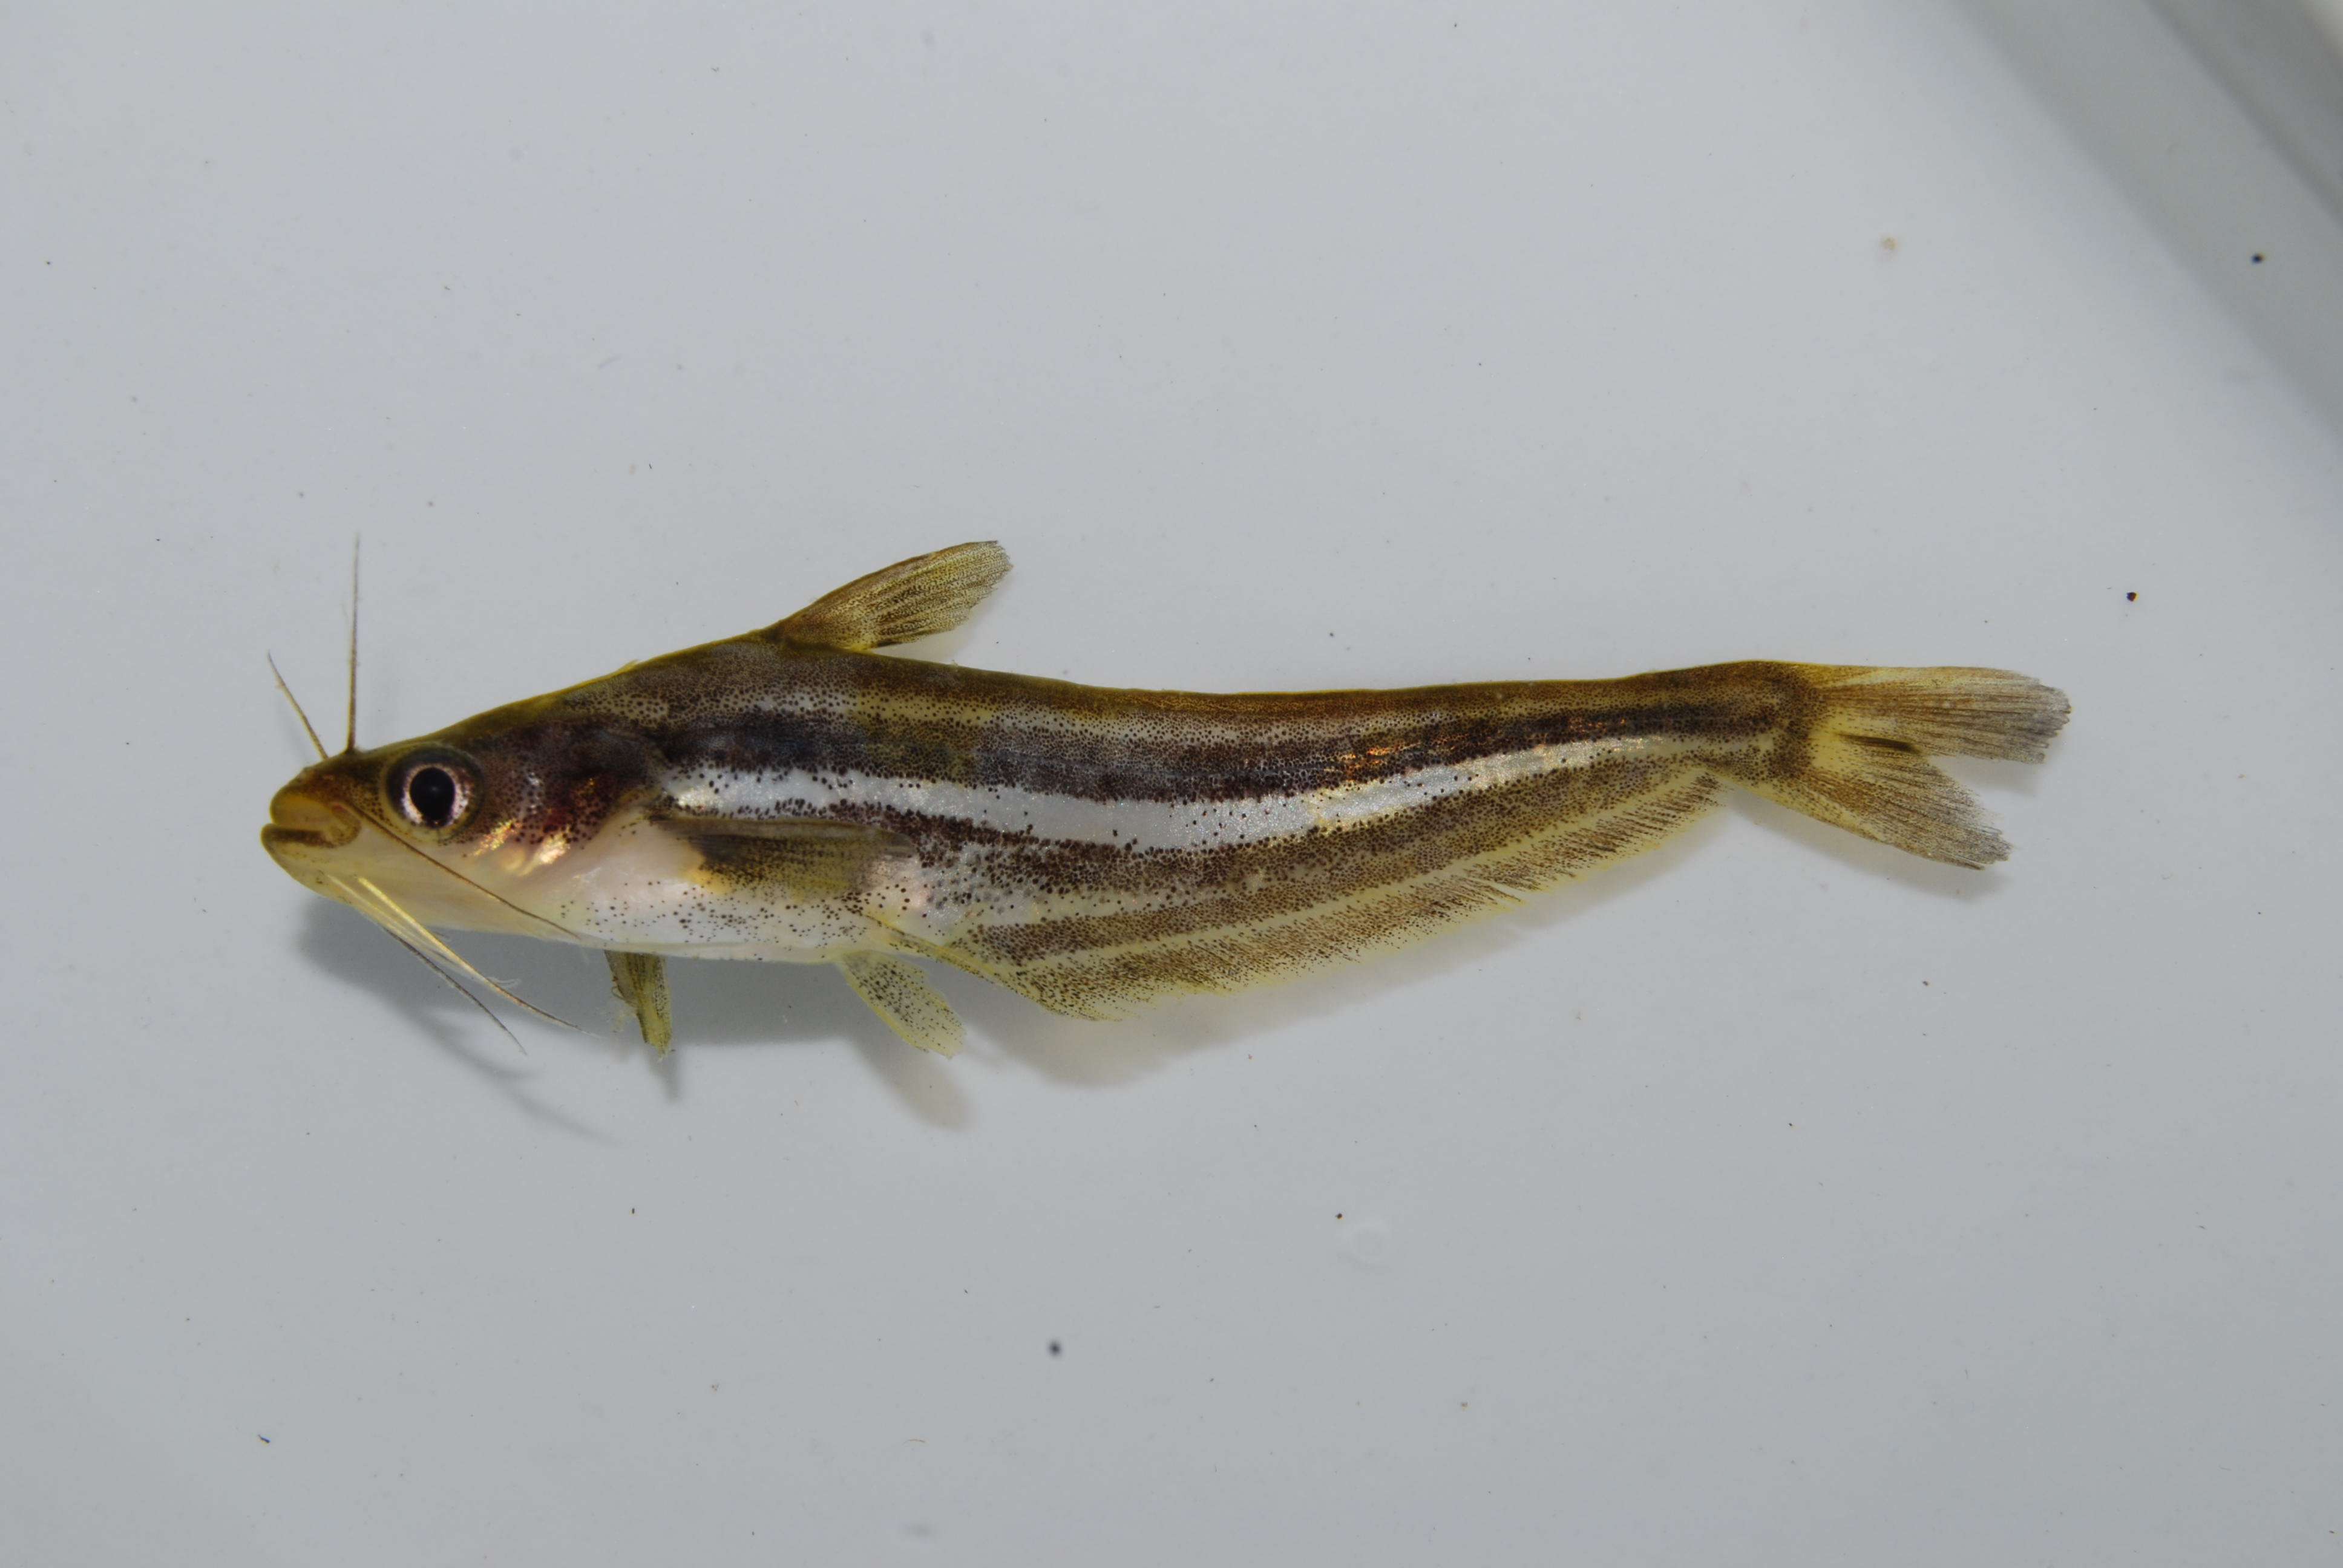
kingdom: Animalia
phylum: Chordata
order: Siluriformes
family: Schilbeidae
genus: Schilbe
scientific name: Schilbe intermedius
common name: Silver catfish
